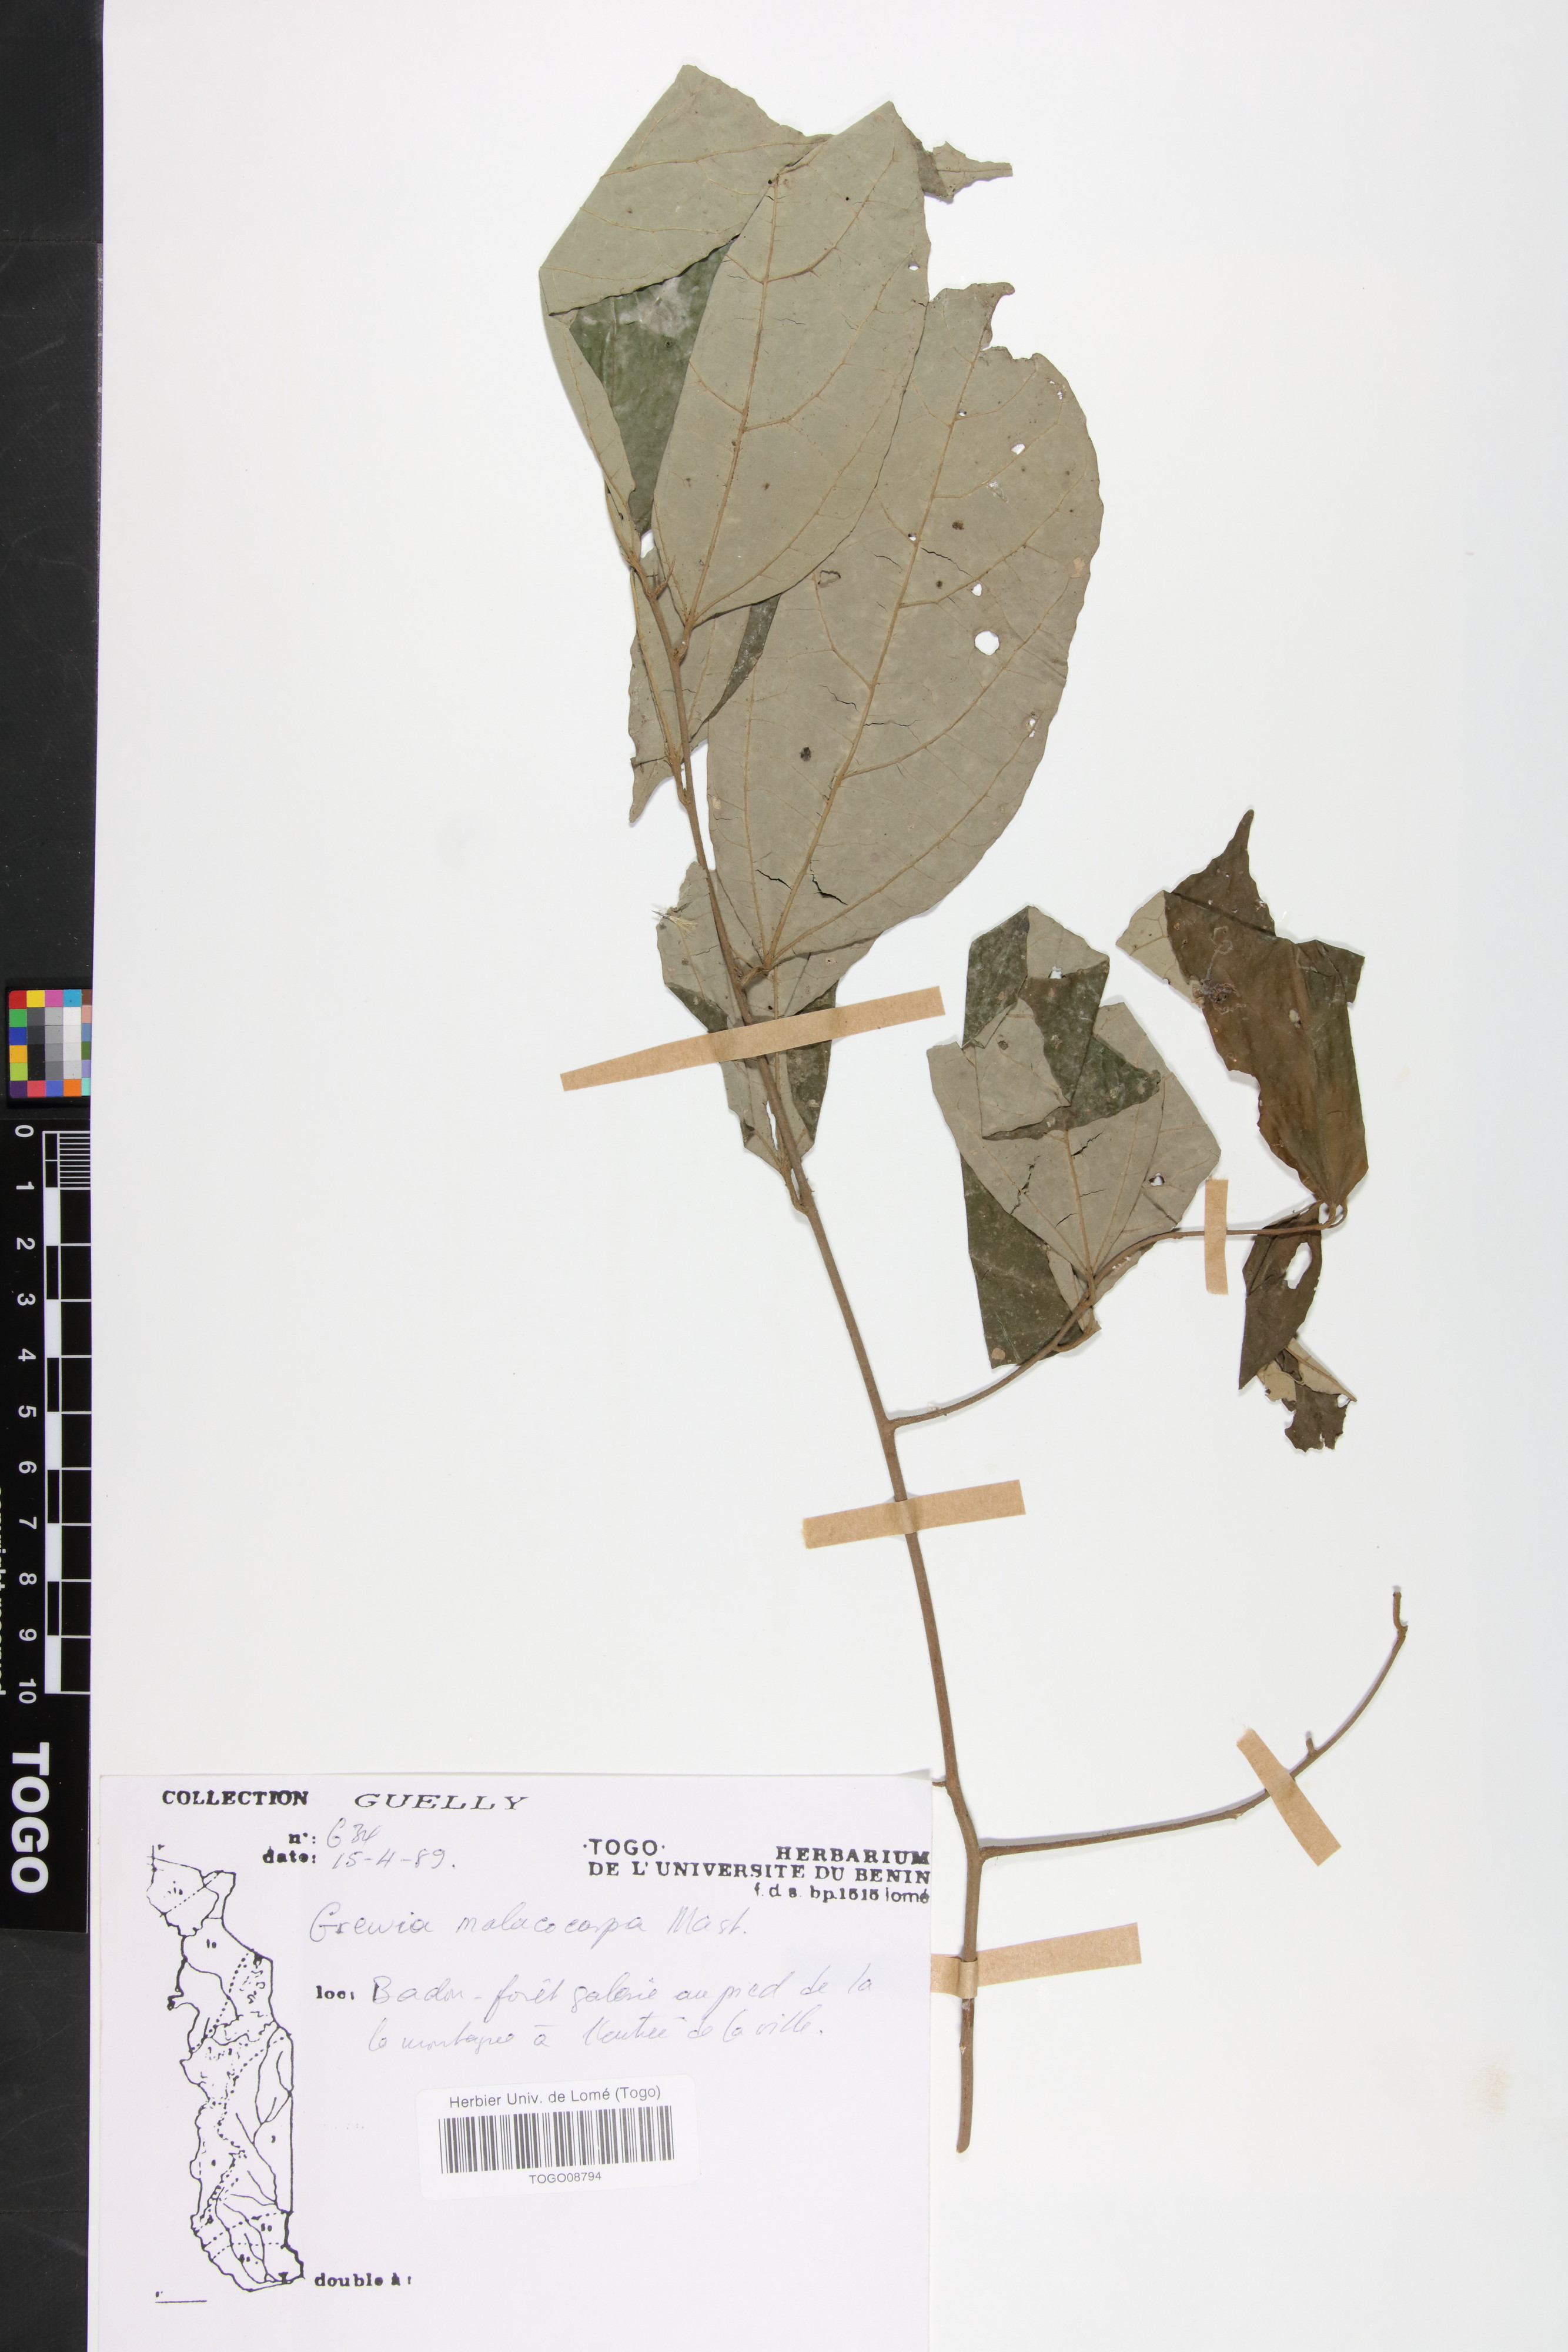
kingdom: Plantae
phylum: Tracheophyta
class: Magnoliopsida
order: Malvales
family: Malvaceae
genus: Microcos
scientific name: Microcos malacocarpa
